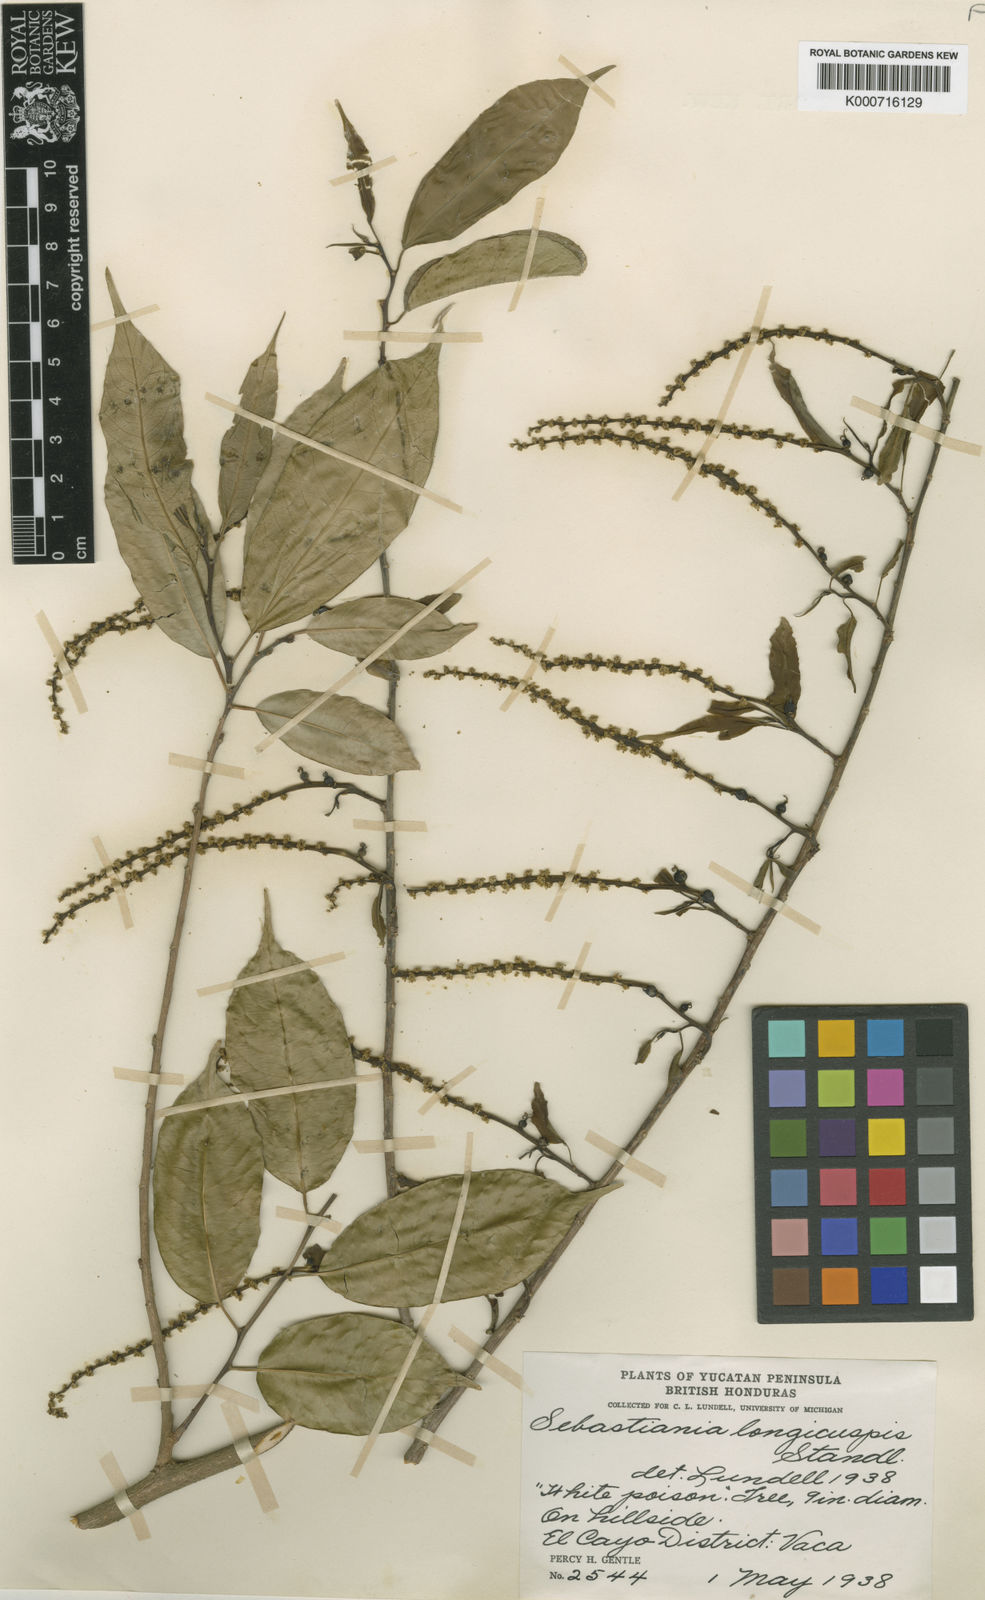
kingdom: Plantae
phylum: Tracheophyta
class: Magnoliopsida
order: Malpighiales
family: Euphorbiaceae
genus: Pleradenophora
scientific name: Pleradenophora tuerckheimiana
